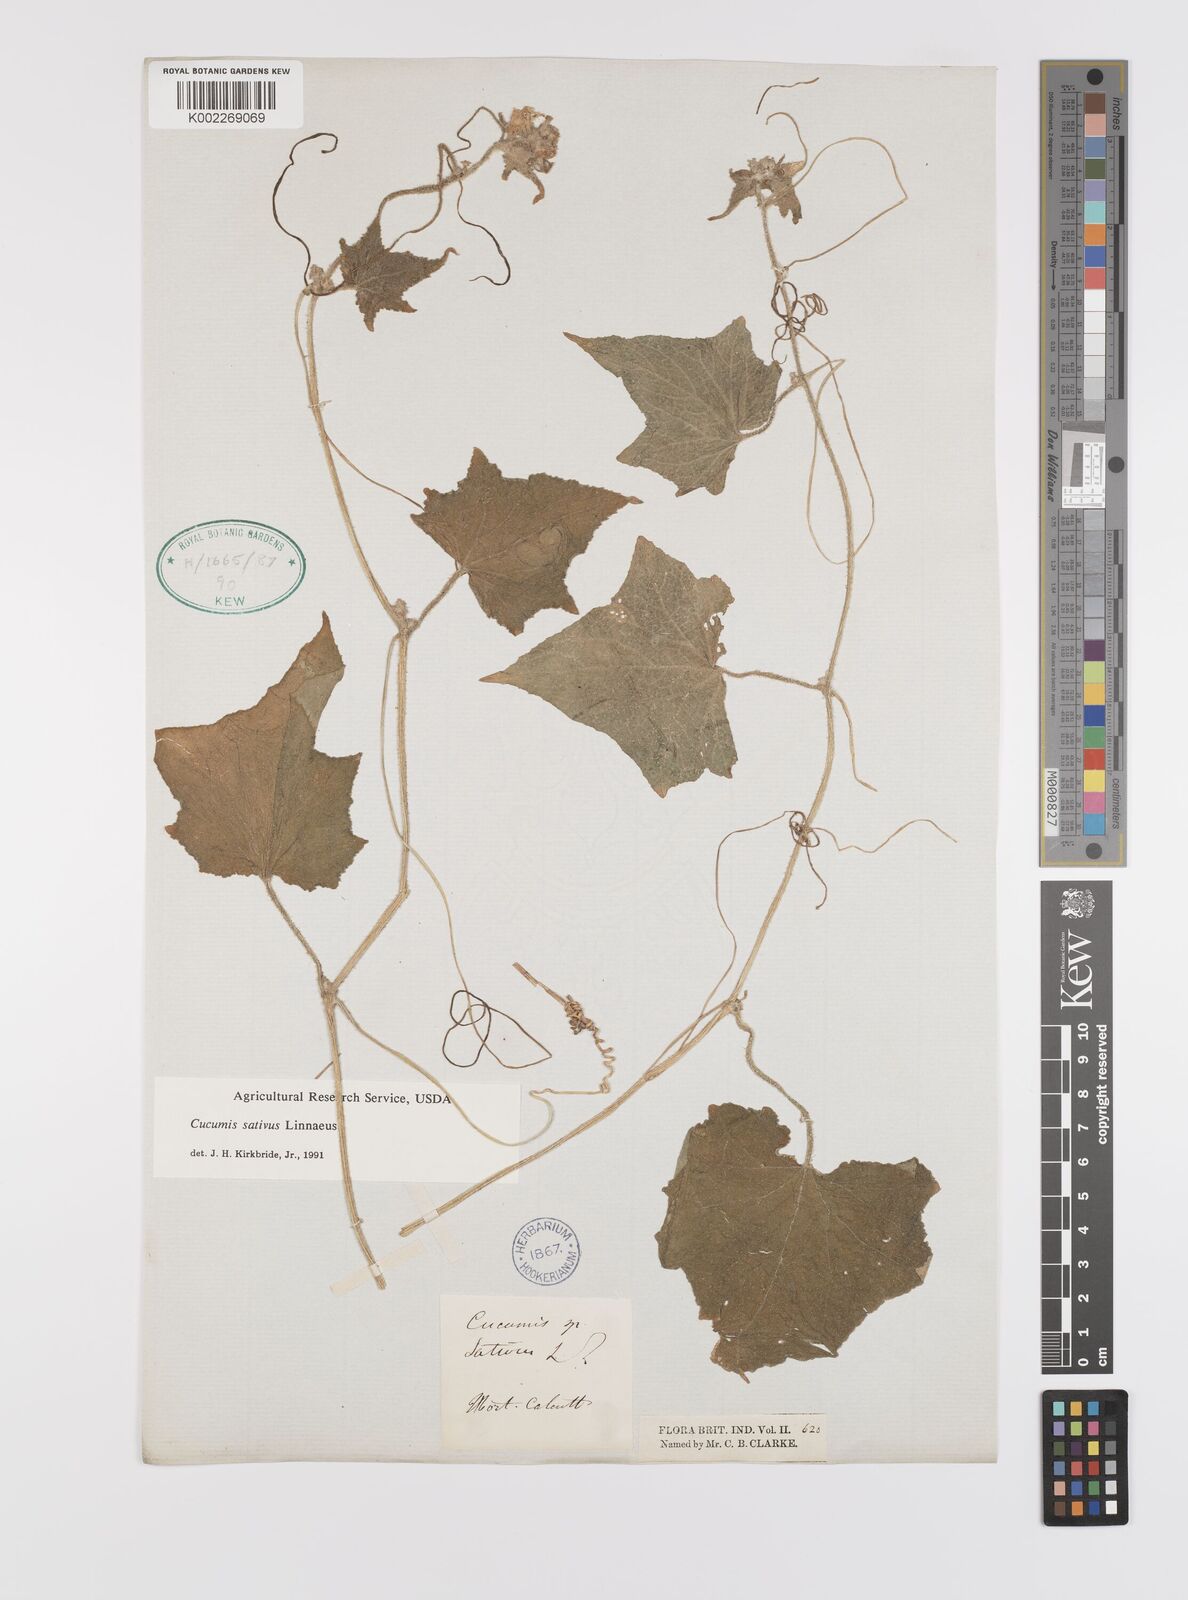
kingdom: Plantae
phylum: Tracheophyta
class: Magnoliopsida
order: Cucurbitales
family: Cucurbitaceae
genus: Cucumis
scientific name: Cucumis sativus
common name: Cucumber
